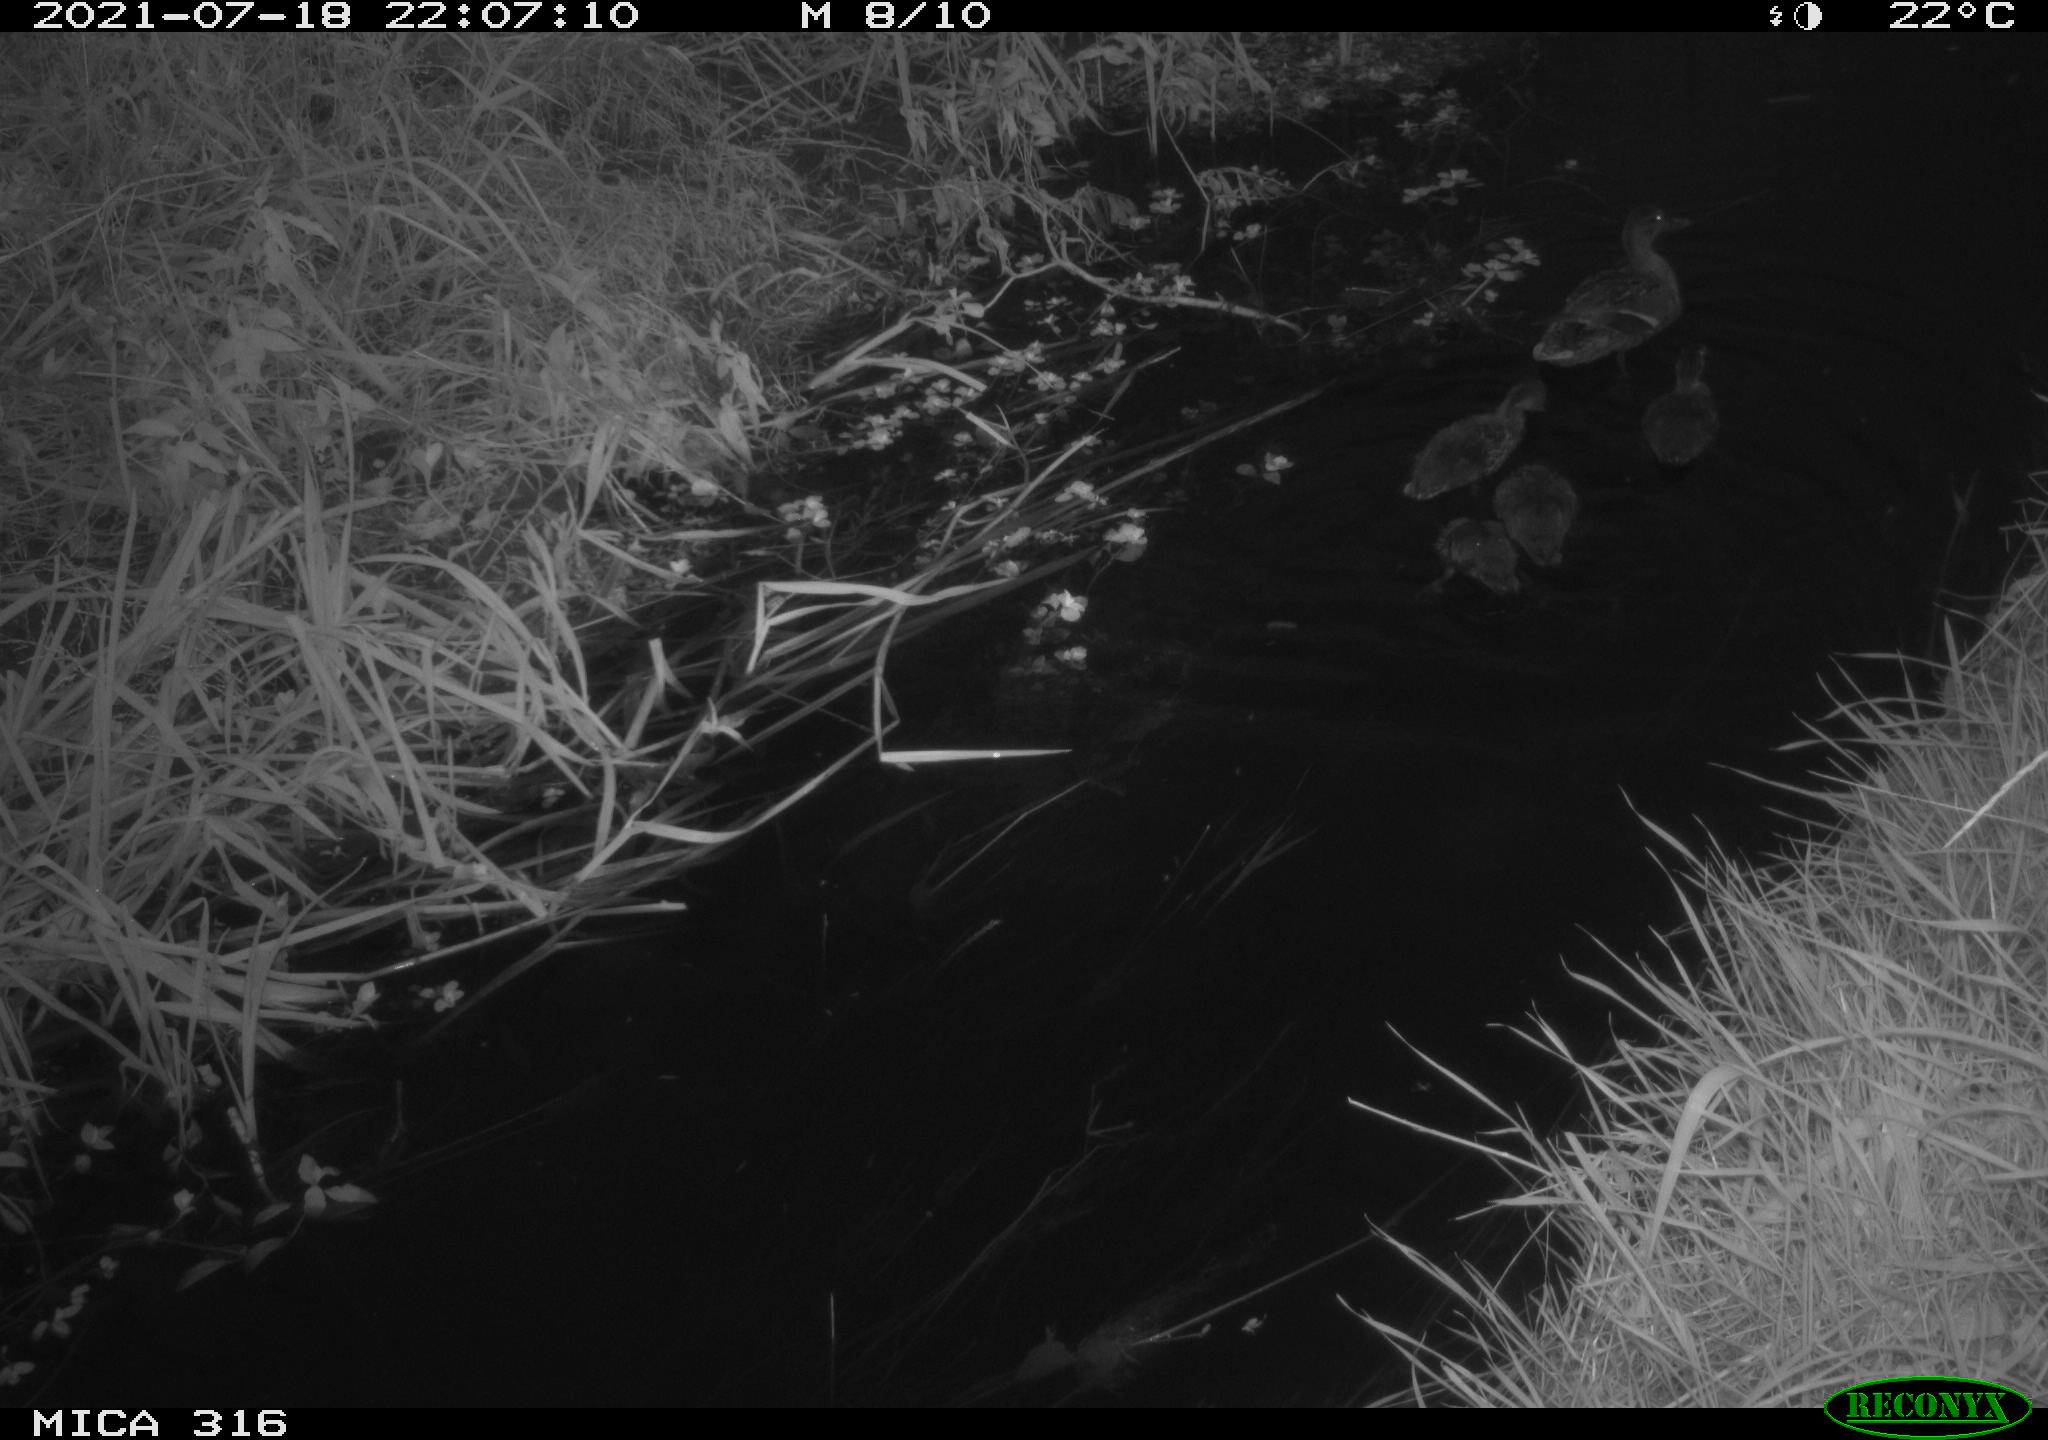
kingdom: Animalia
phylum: Chordata
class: Aves
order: Anseriformes
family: Anatidae
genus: Anas
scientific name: Anas platyrhynchos
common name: Mallard
